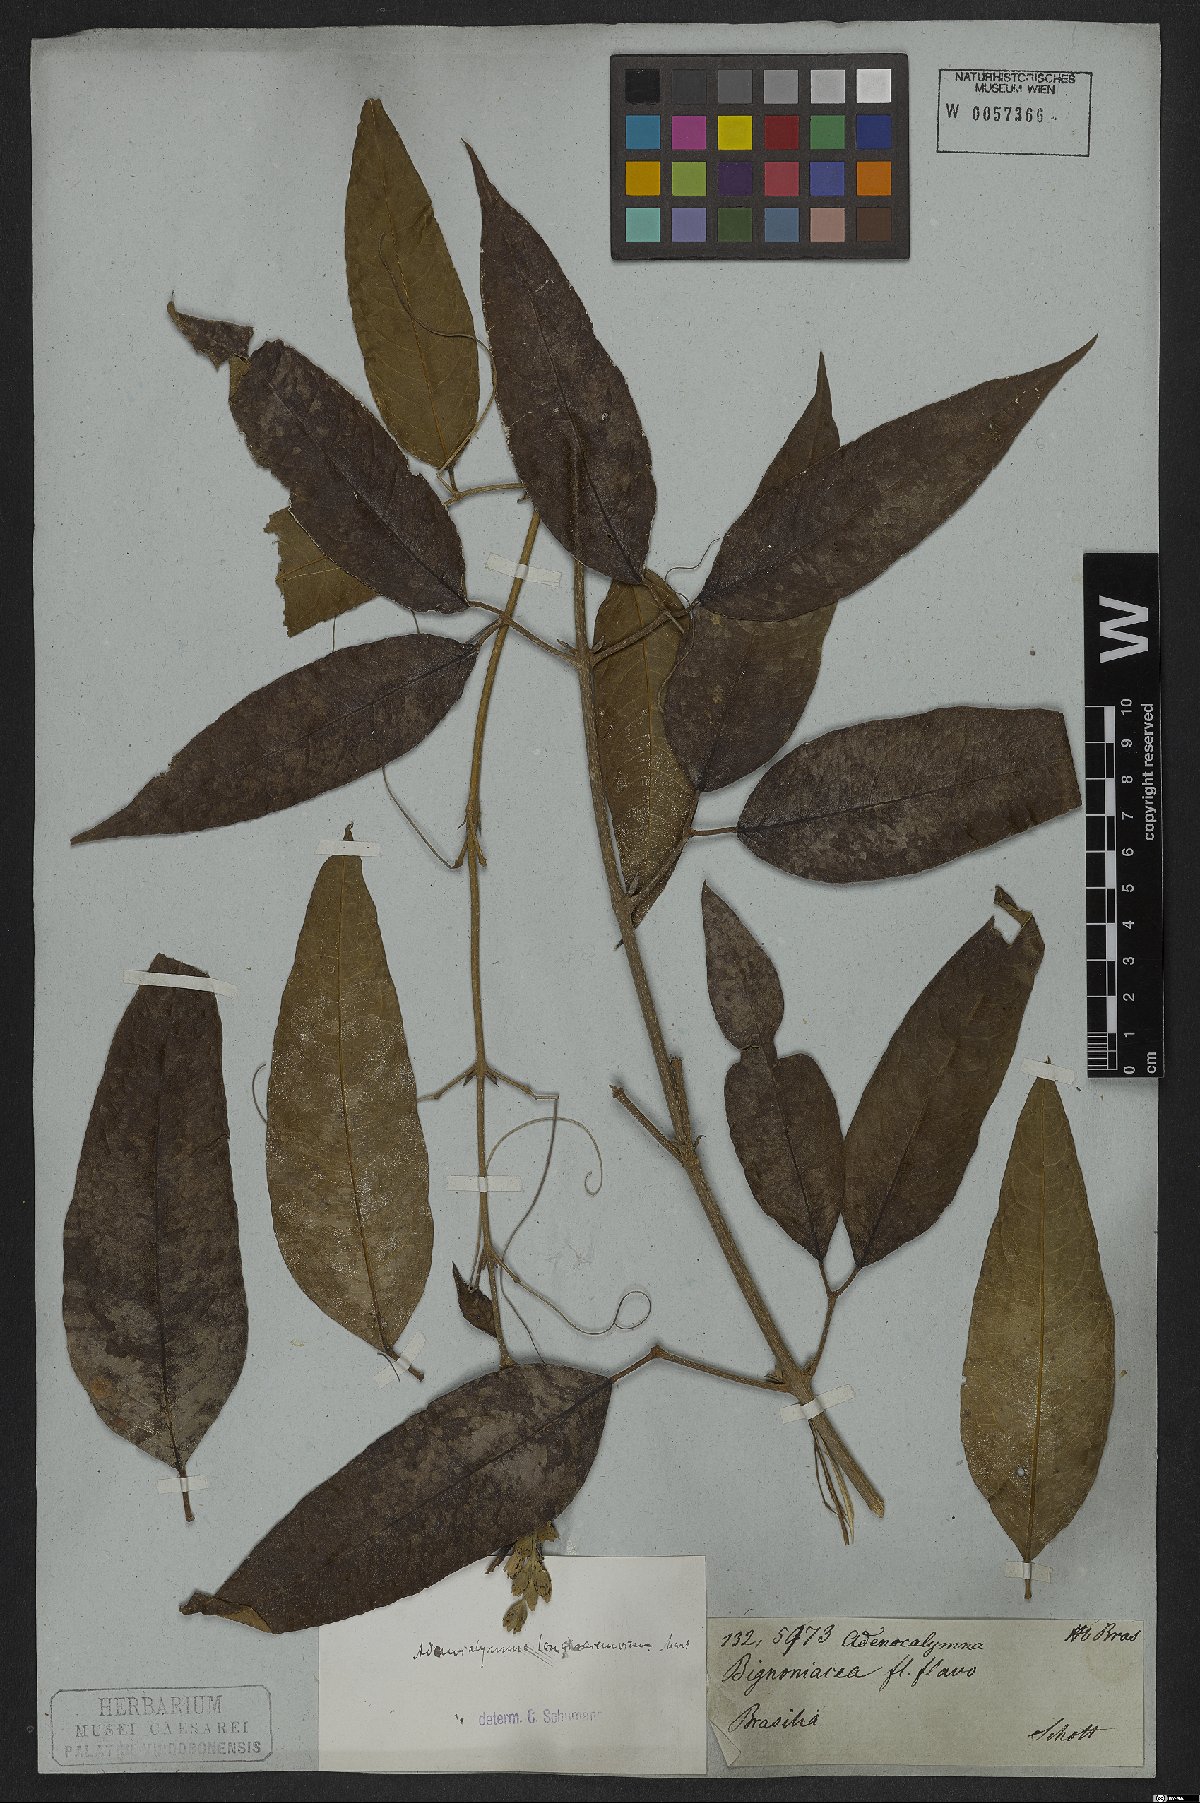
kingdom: Plantae
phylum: Tracheophyta
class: Magnoliopsida
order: Lamiales
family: Bignoniaceae
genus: Adenocalymma
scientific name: Adenocalymma trifoliatum
